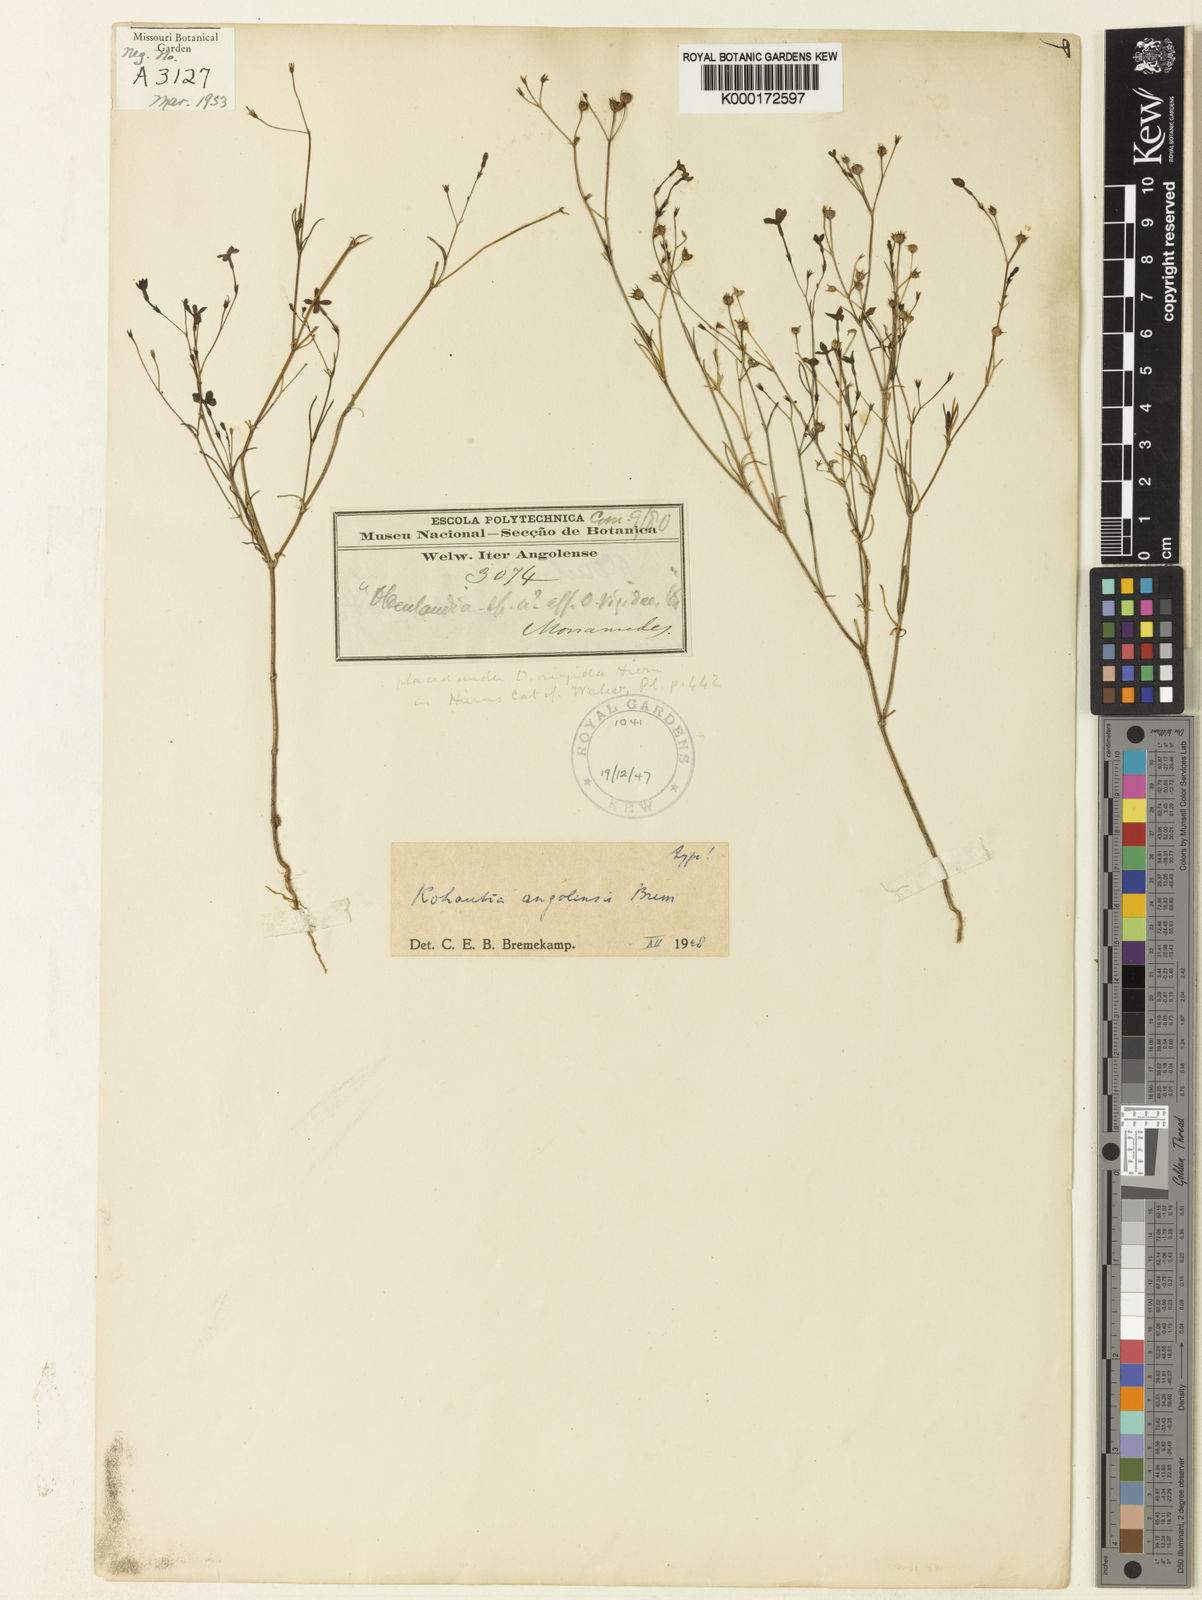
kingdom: Plantae
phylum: Tracheophyta
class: Magnoliopsida
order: Gentianales
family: Rubiaceae
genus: Kohautia
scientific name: Kohautia angolensis
